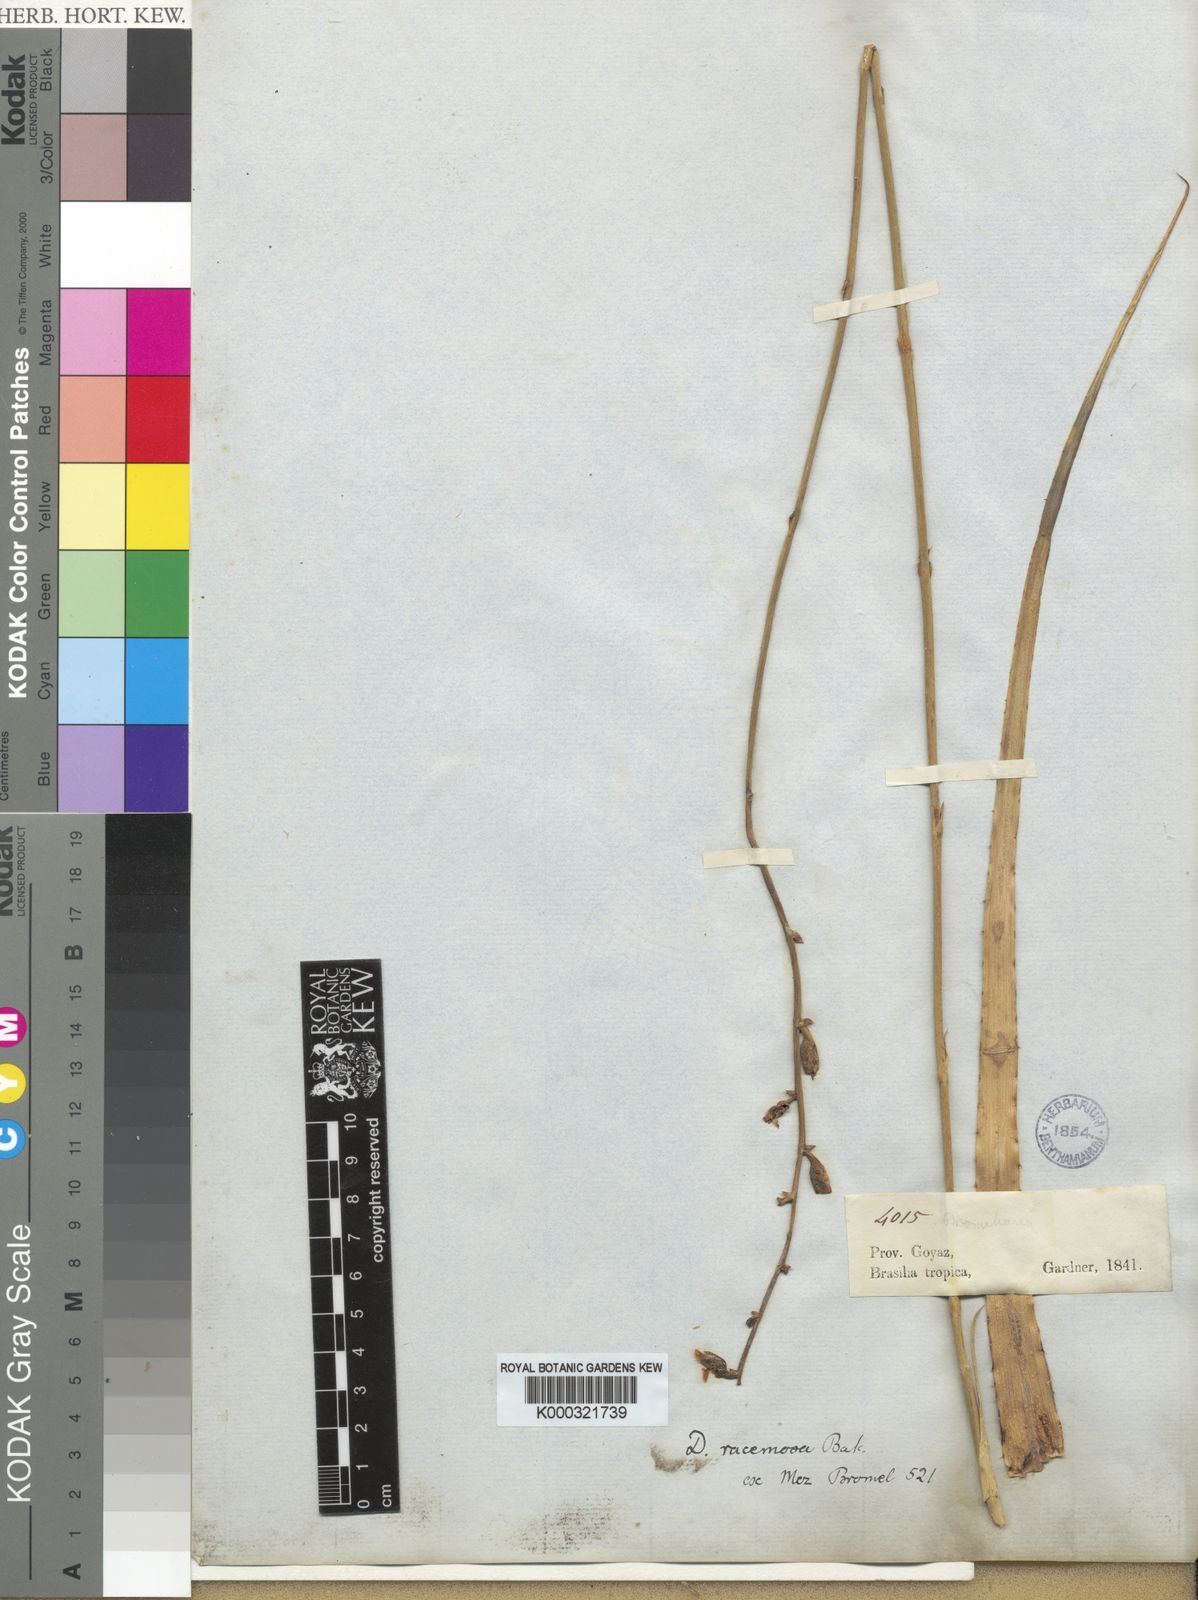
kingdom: Plantae
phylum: Tracheophyta
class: Liliopsida
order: Poales
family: Bromeliaceae
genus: Dyckia
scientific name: Dyckia racemosa
